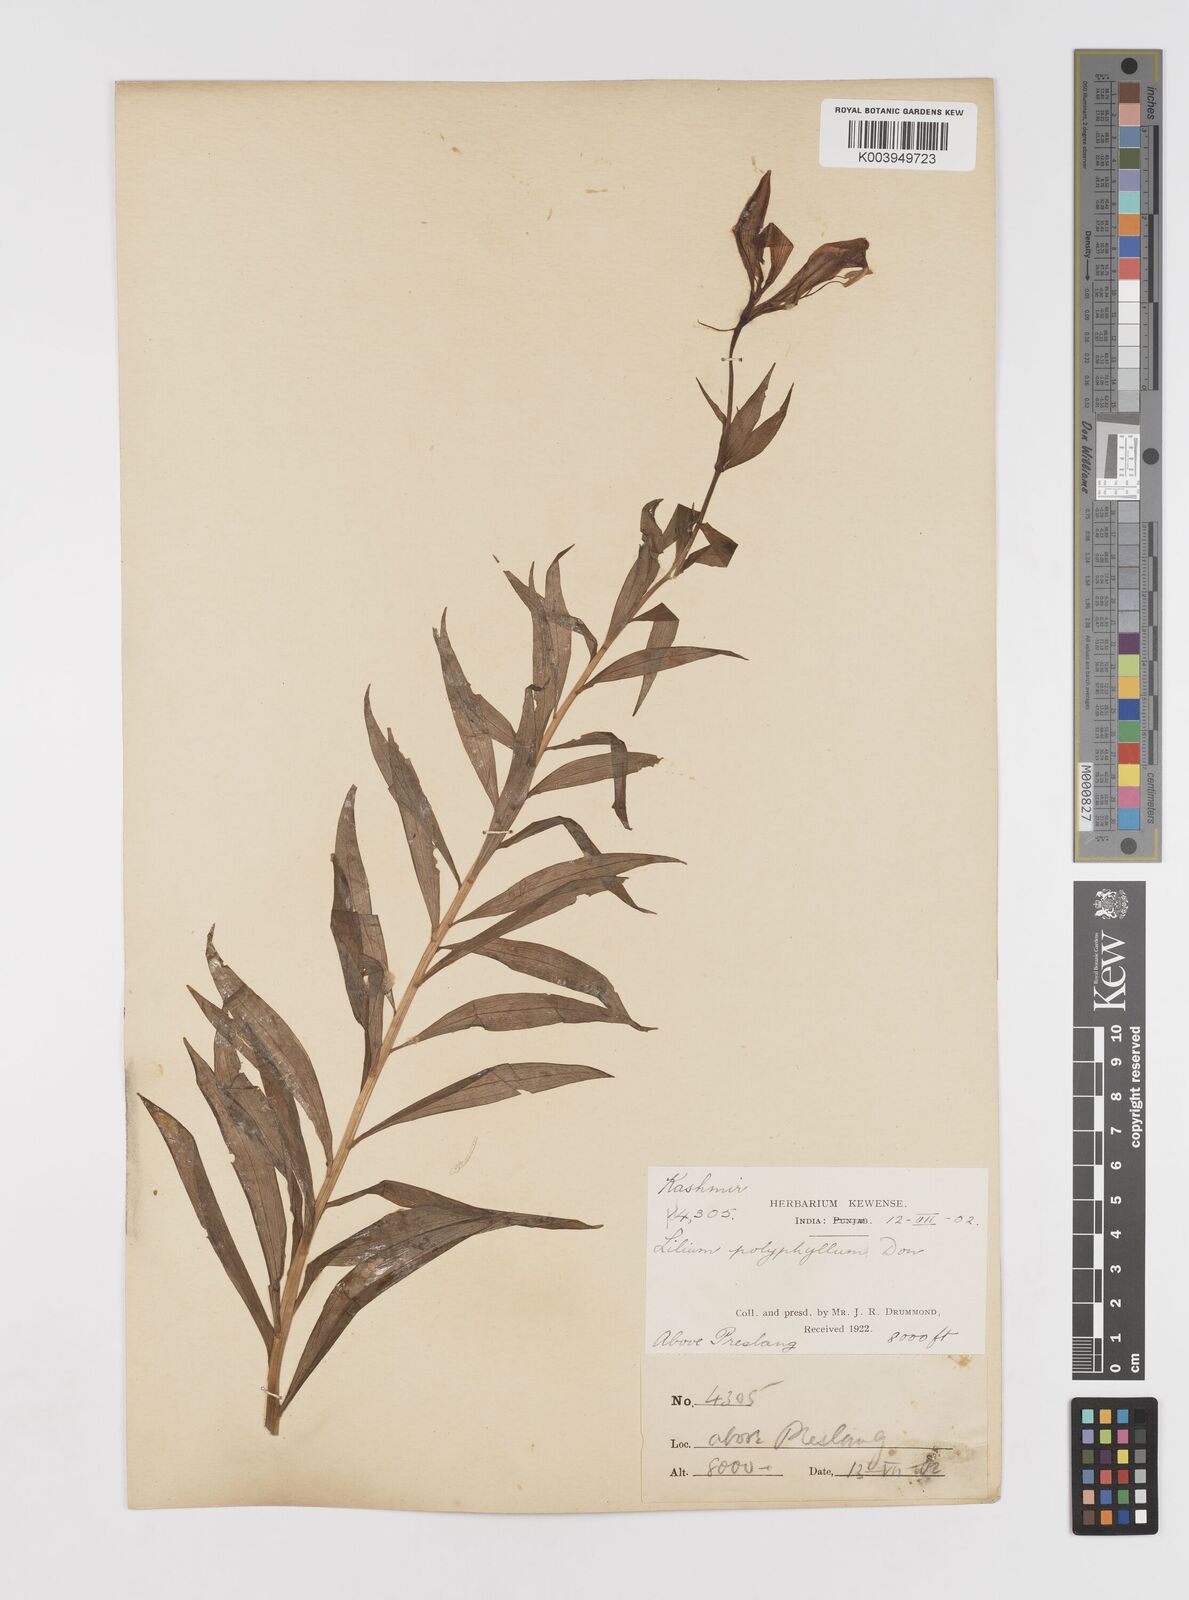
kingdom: Plantae
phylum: Tracheophyta
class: Liliopsida
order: Liliales
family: Liliaceae
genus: Lilium
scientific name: Lilium polyphyllum
